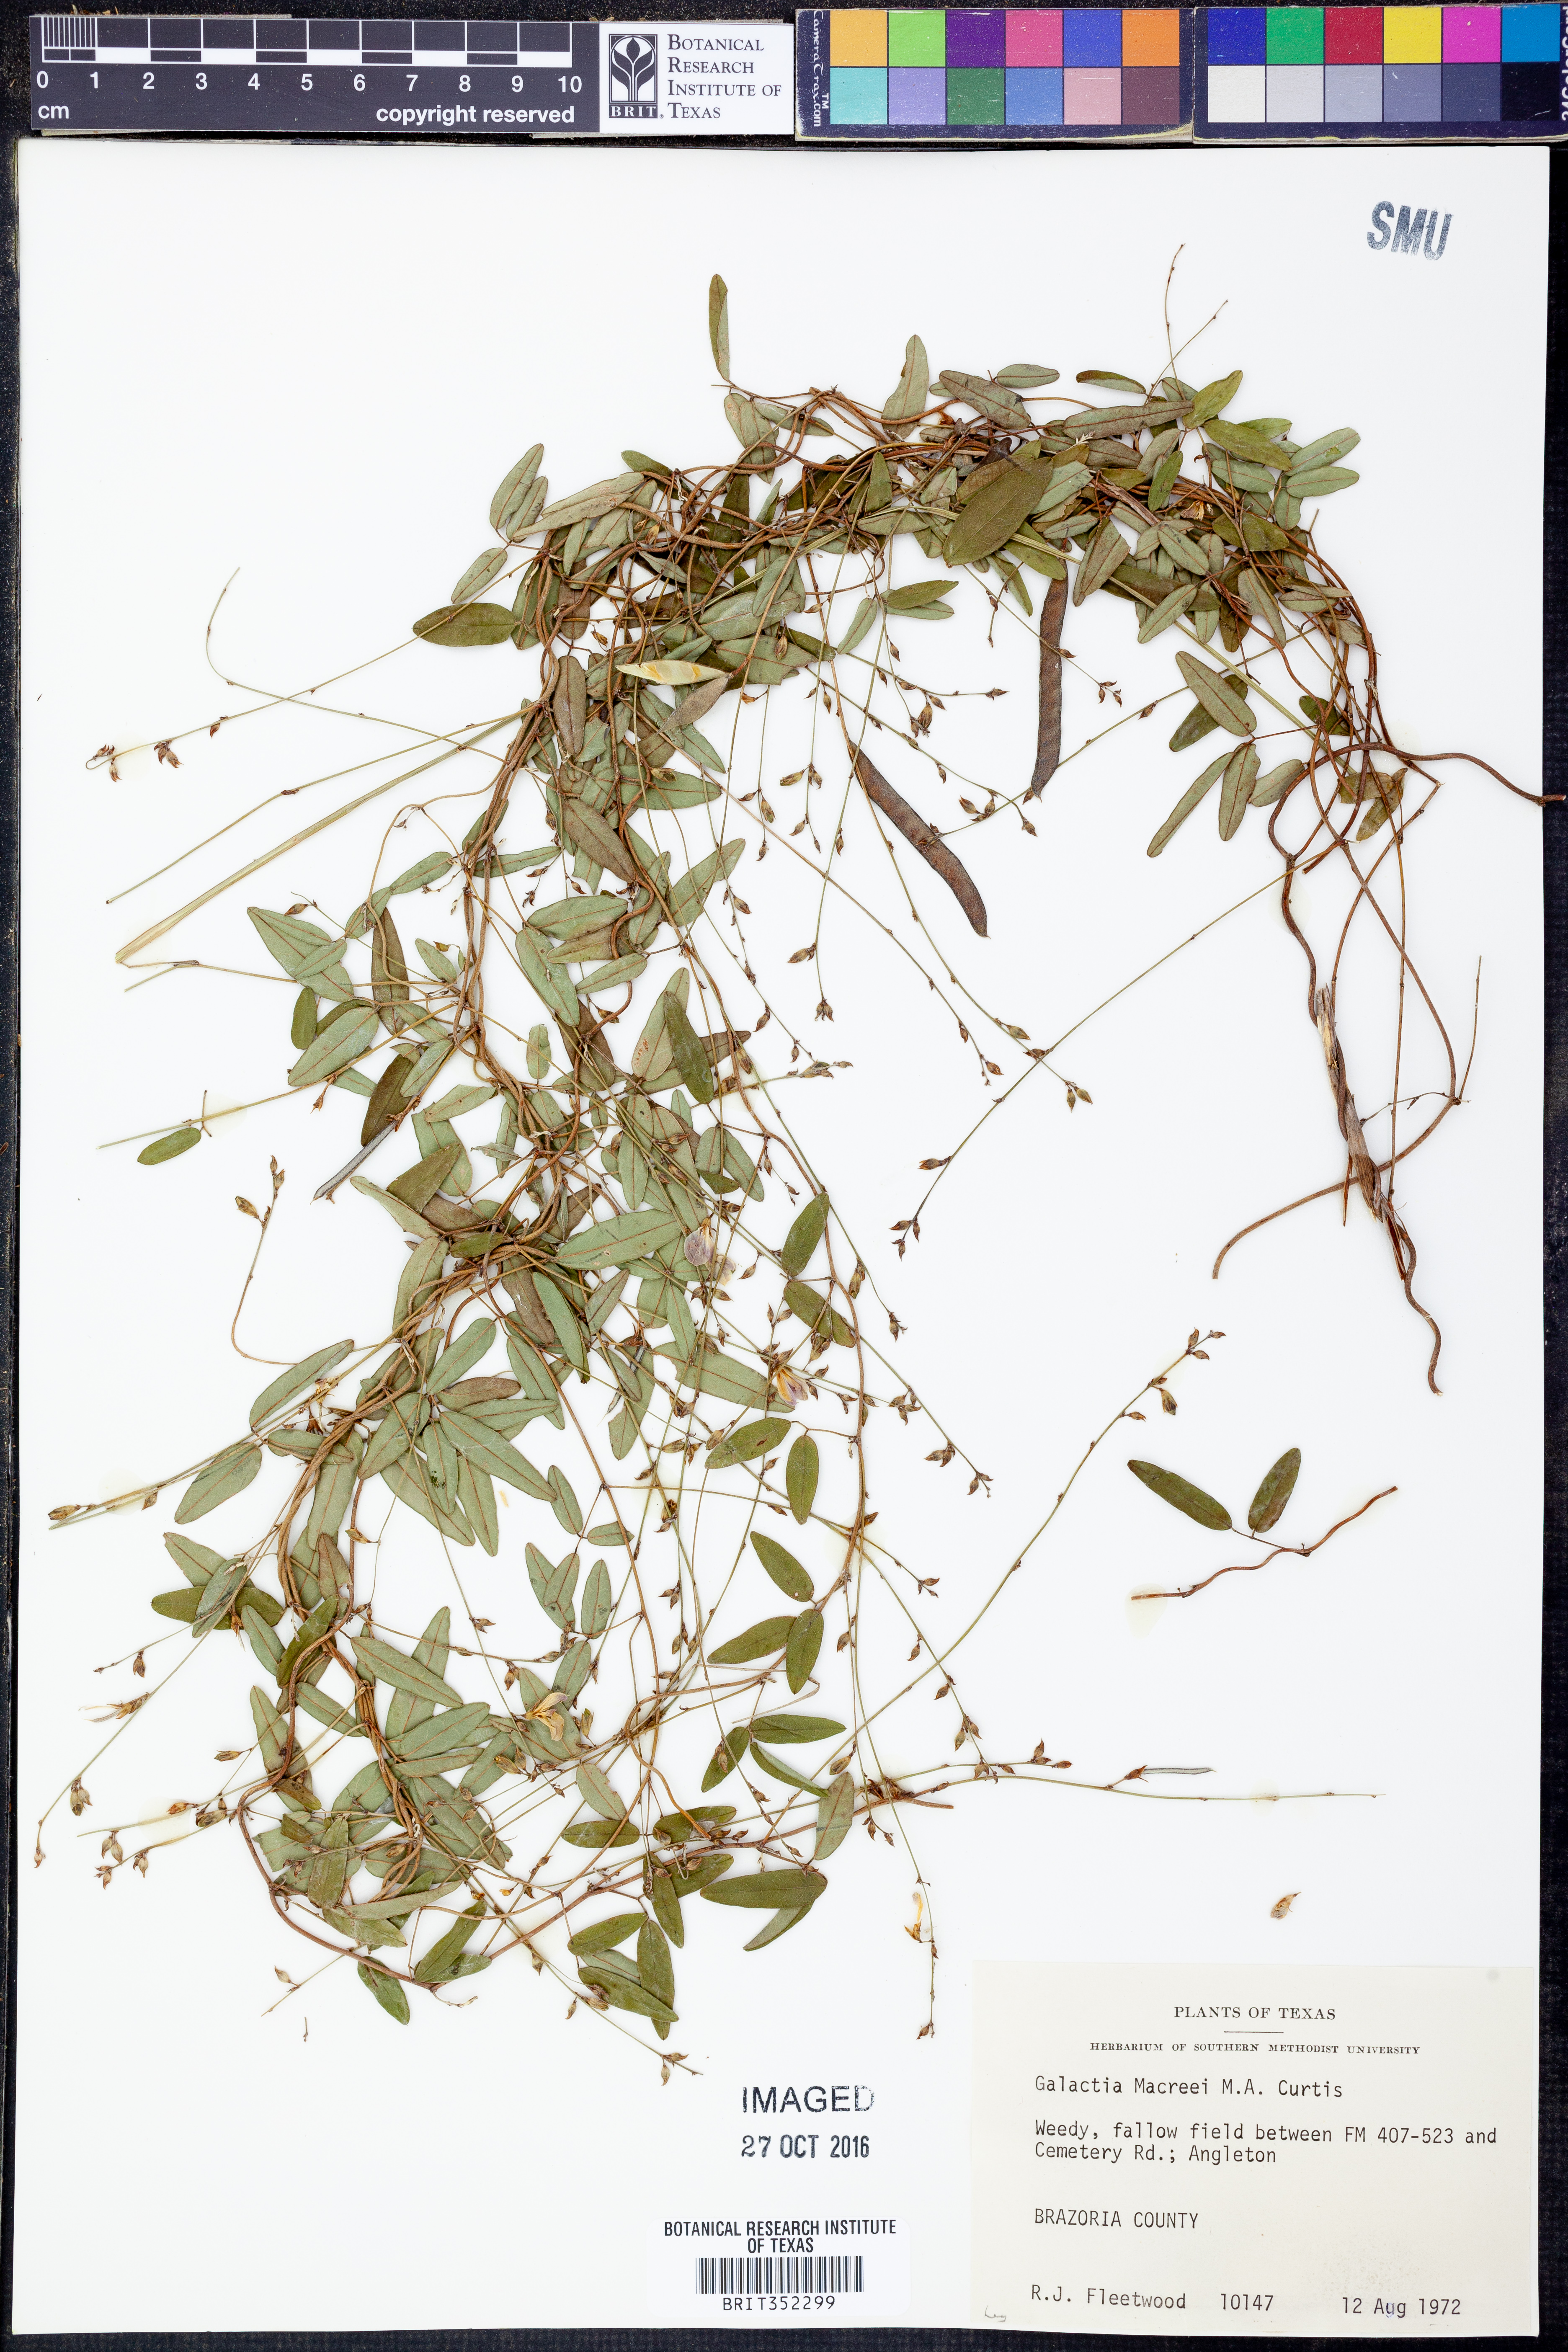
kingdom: Plantae
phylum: Tracheophyta
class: Magnoliopsida
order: Fabales
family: Fabaceae
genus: Galactia
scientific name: Galactia volubilis
